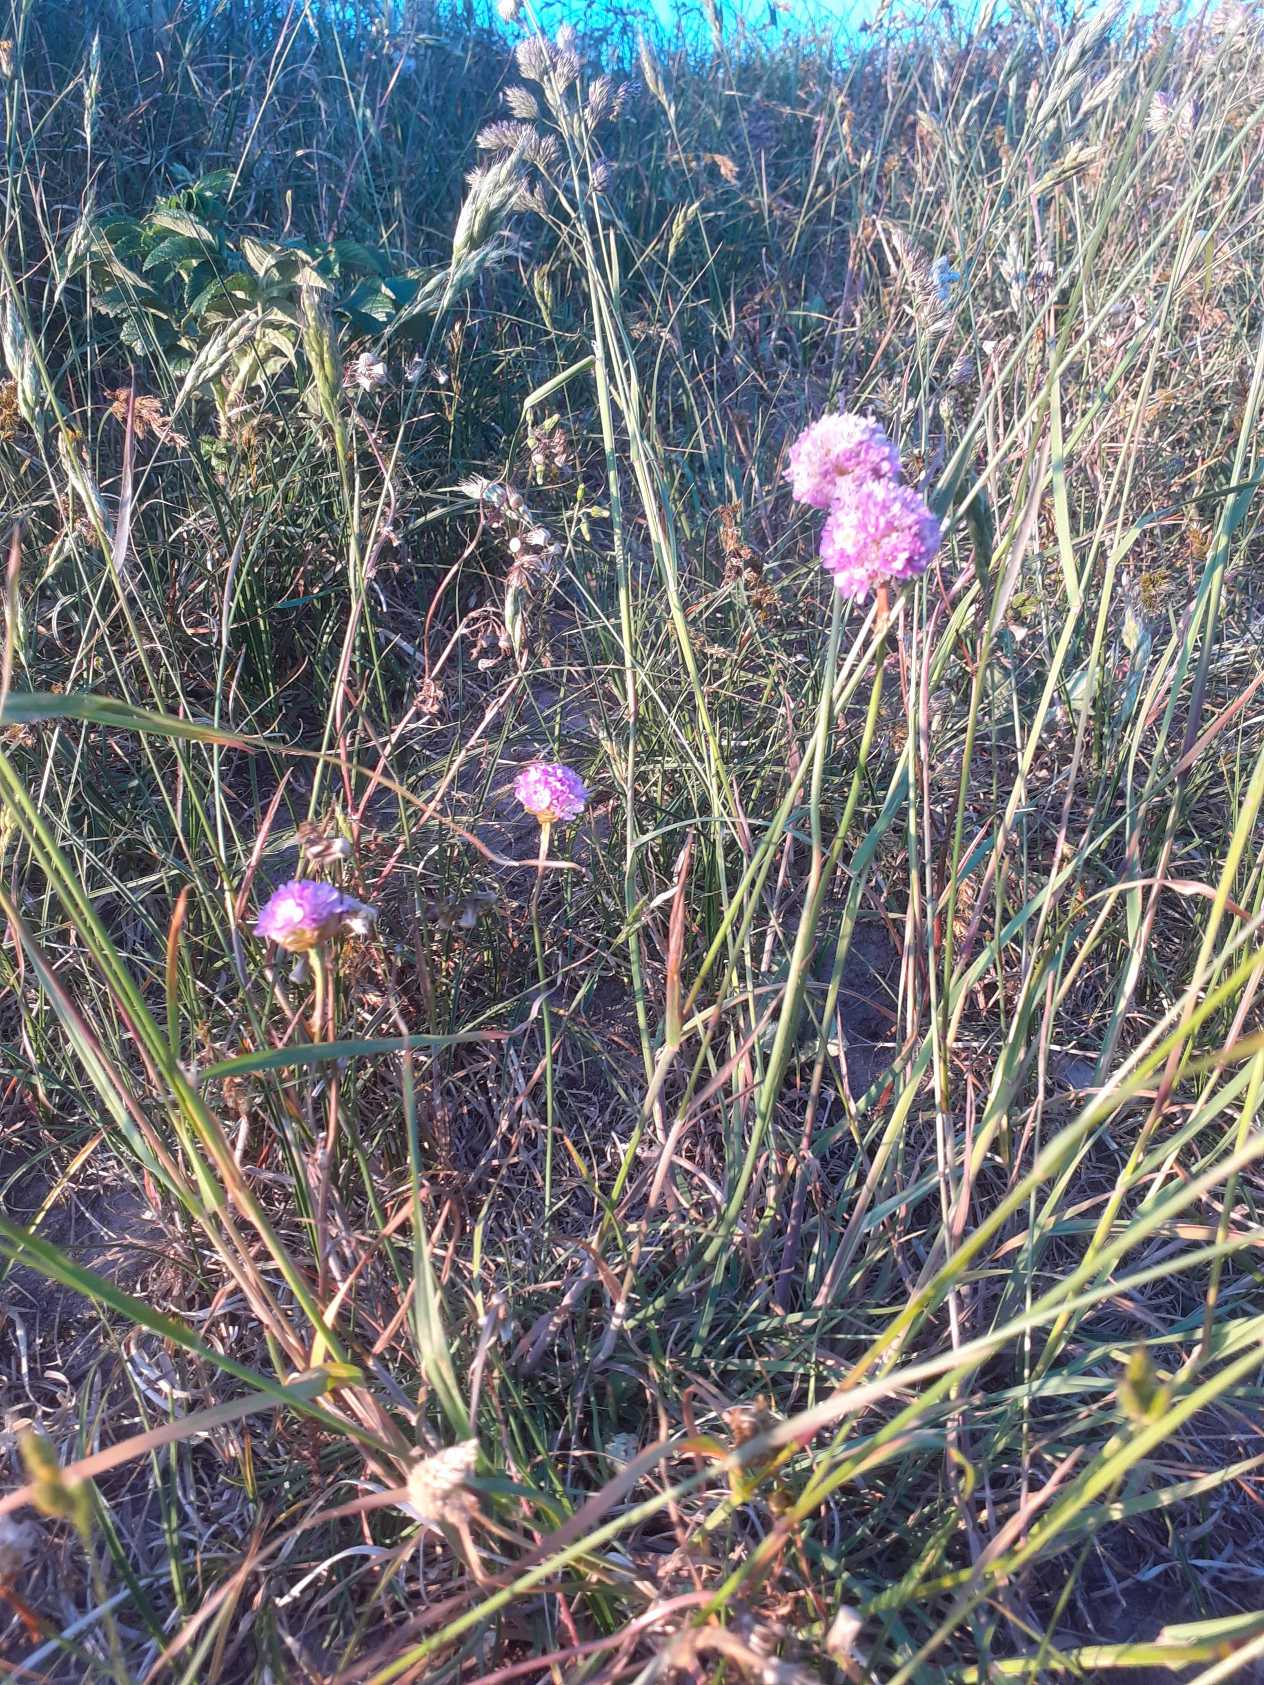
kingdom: Plantae
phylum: Tracheophyta
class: Magnoliopsida
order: Caryophyllales
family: Plumbaginaceae
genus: Armeria
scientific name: Armeria maritima
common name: Engelskgræs
